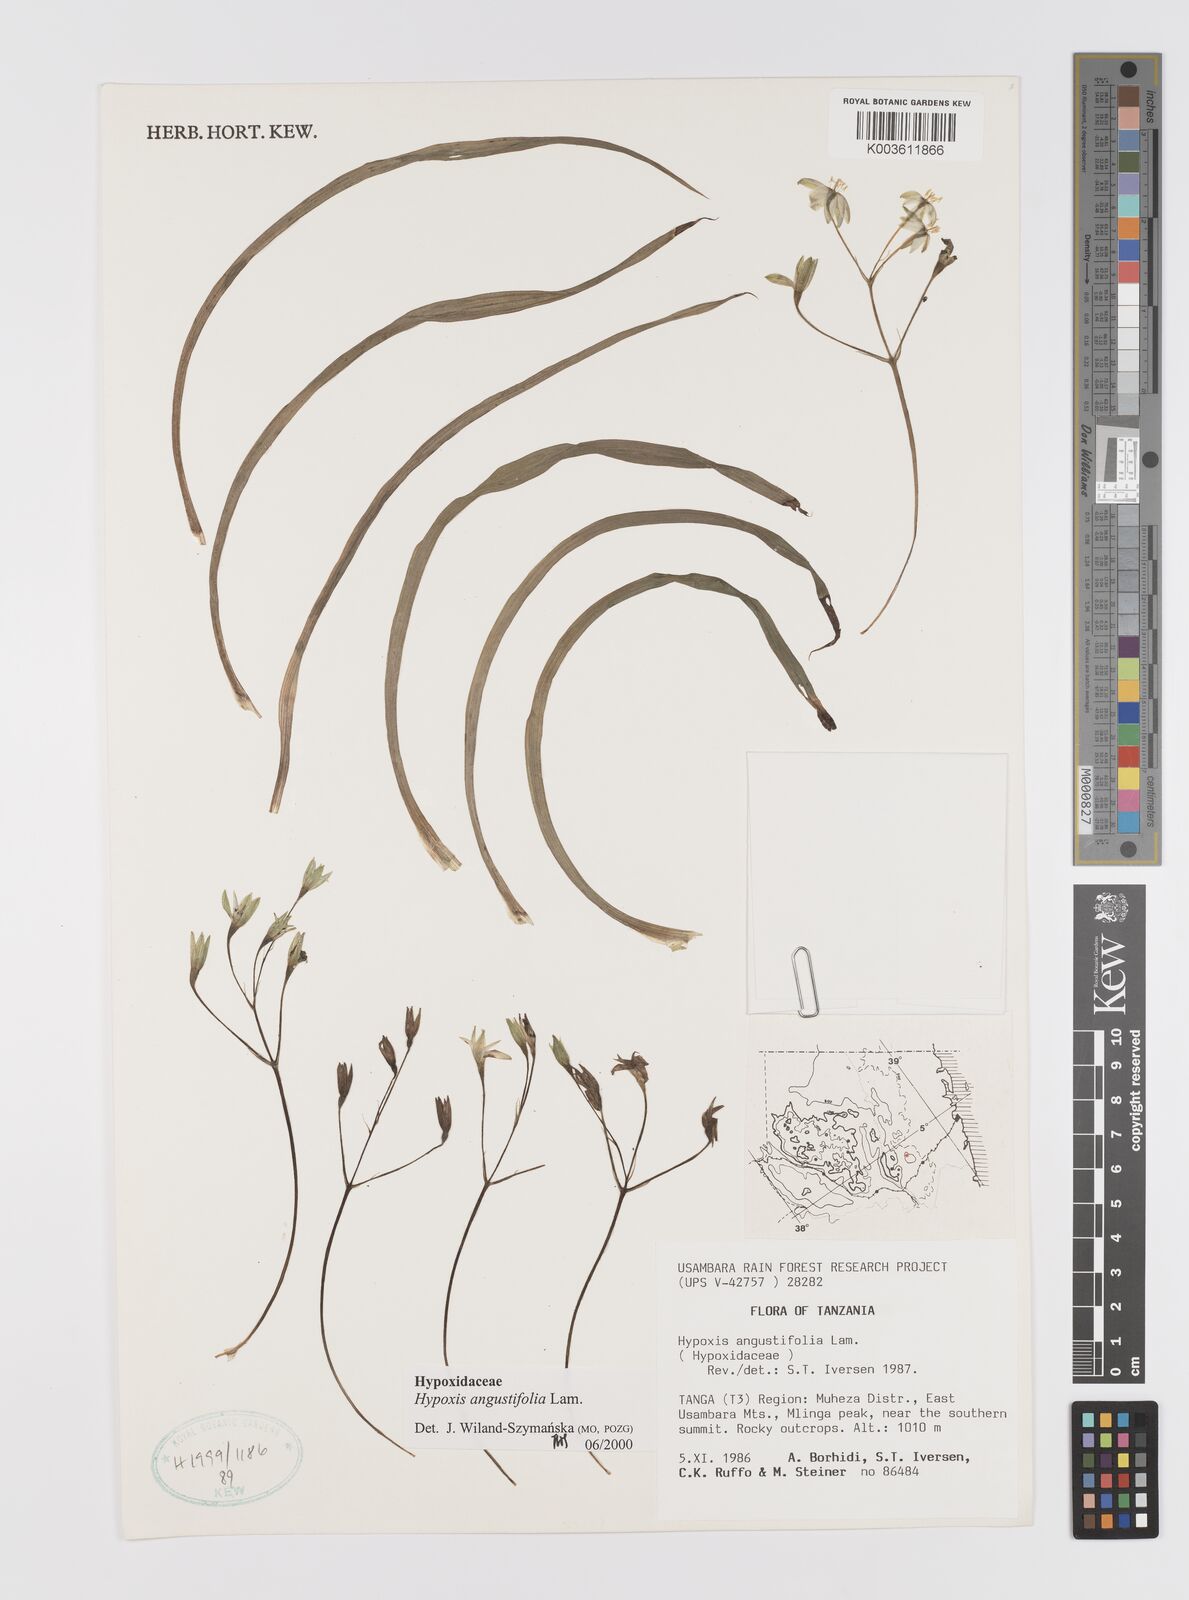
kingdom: Plantae
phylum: Tracheophyta
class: Liliopsida
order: Asparagales
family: Hypoxidaceae
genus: Hypoxis
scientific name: Hypoxis angustifolia
